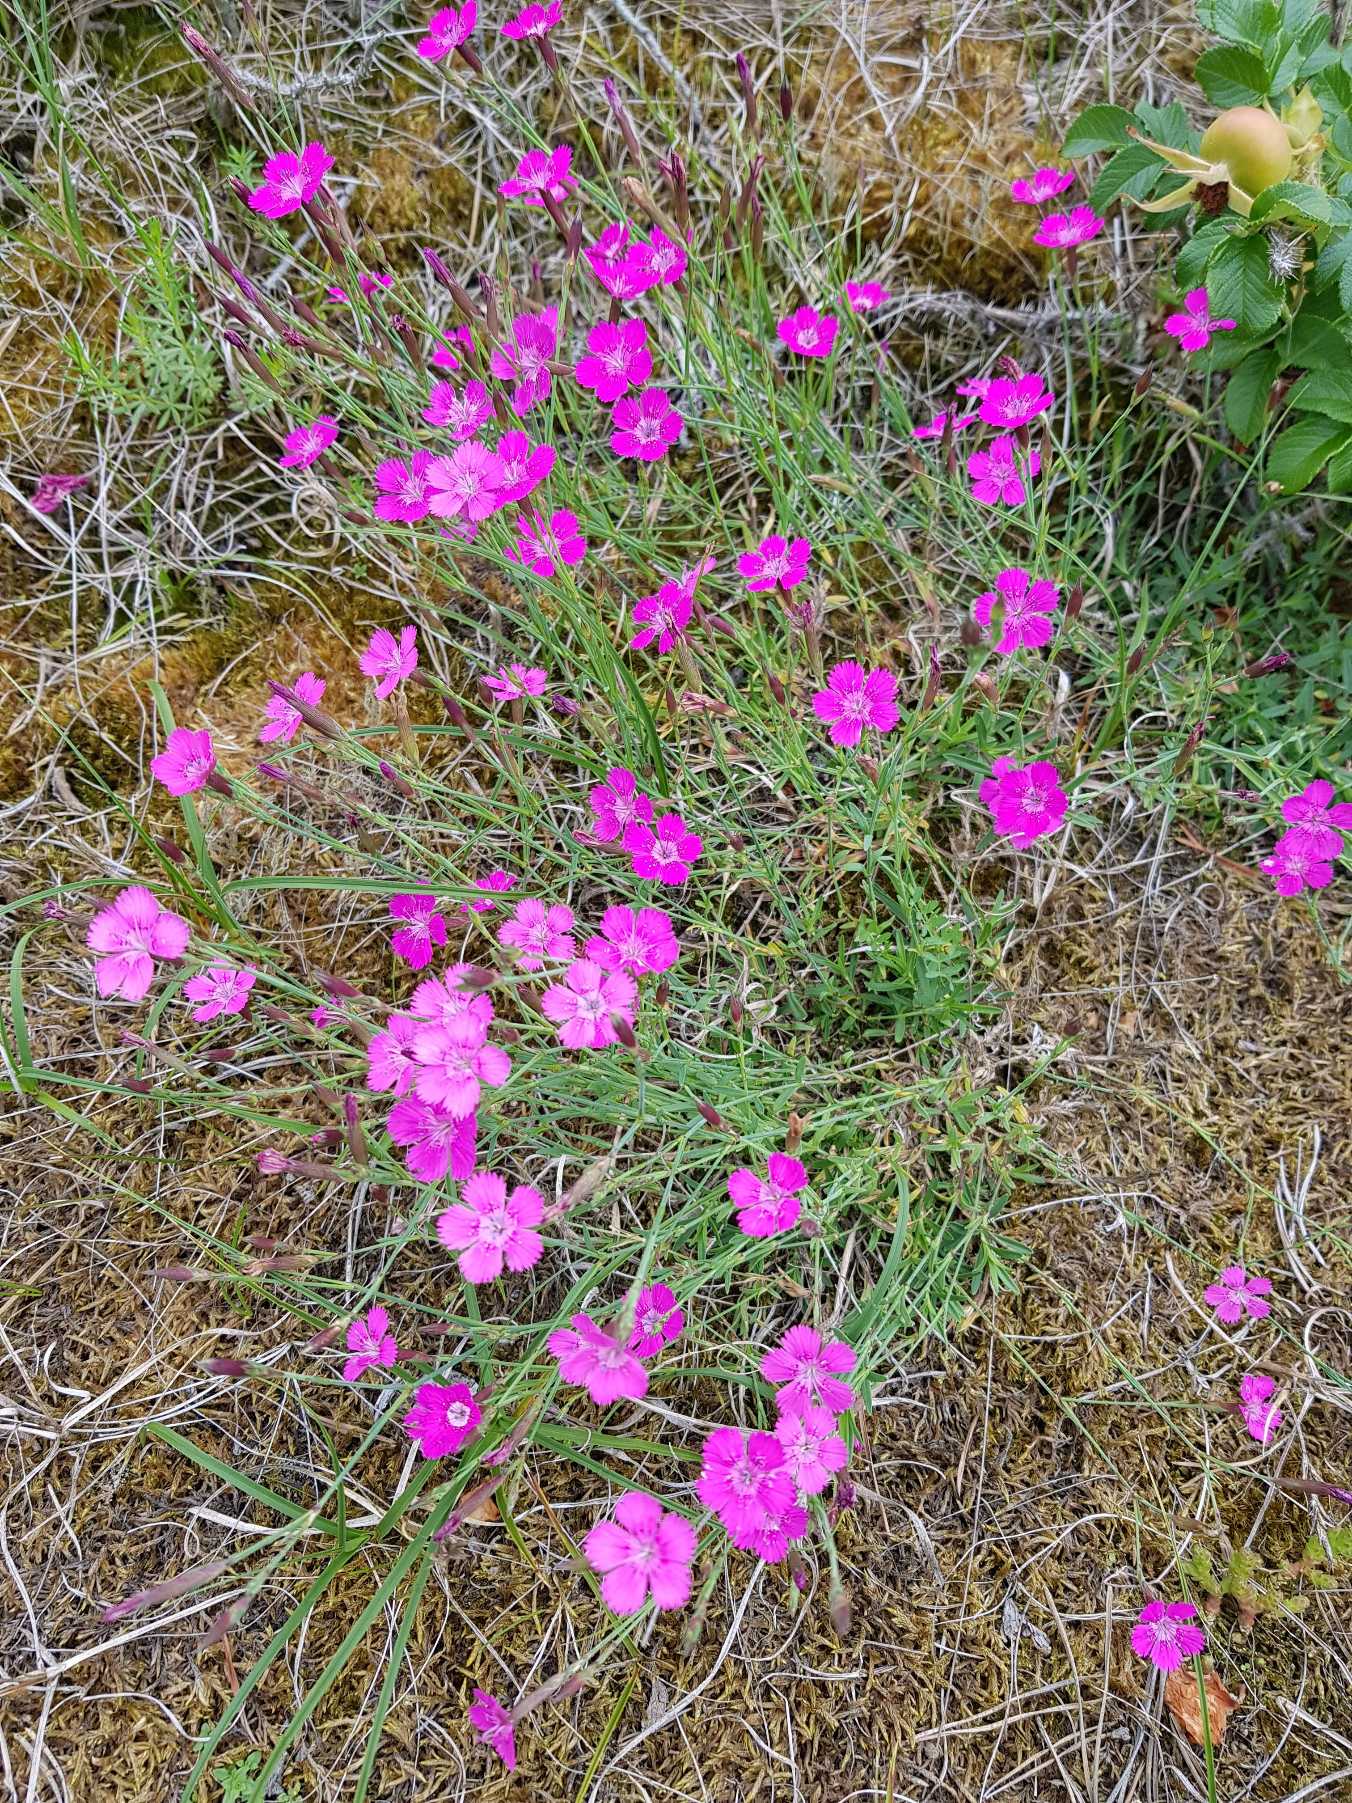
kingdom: Plantae
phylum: Tracheophyta
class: Magnoliopsida
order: Caryophyllales
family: Caryophyllaceae
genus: Dianthus
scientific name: Dianthus deltoides
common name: Bakke-nellike
